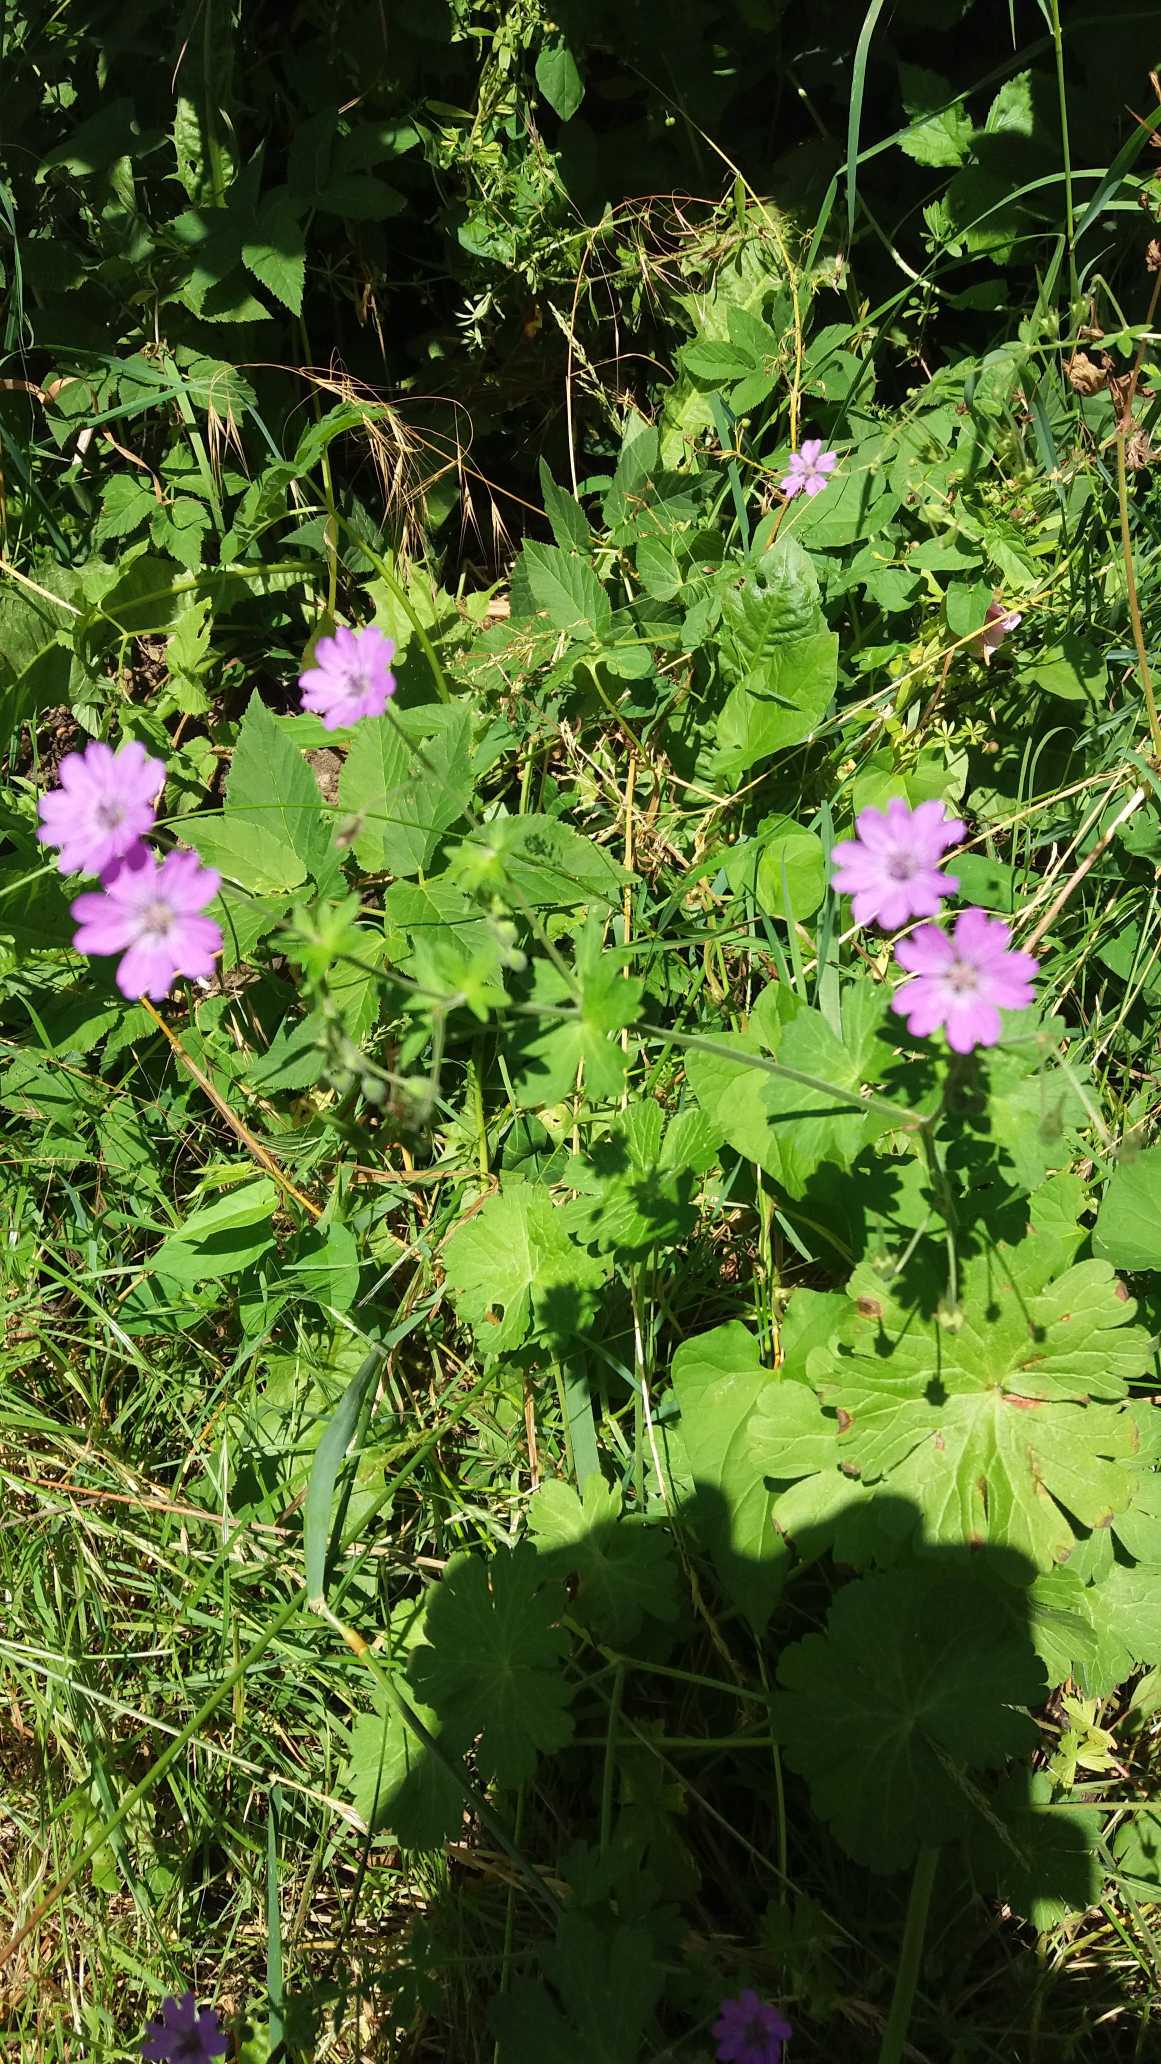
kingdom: Plantae
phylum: Tracheophyta
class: Magnoliopsida
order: Geraniales
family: Geraniaceae
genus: Geranium
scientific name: Geranium pyrenaicum
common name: Pyrenæisk storkenæb
